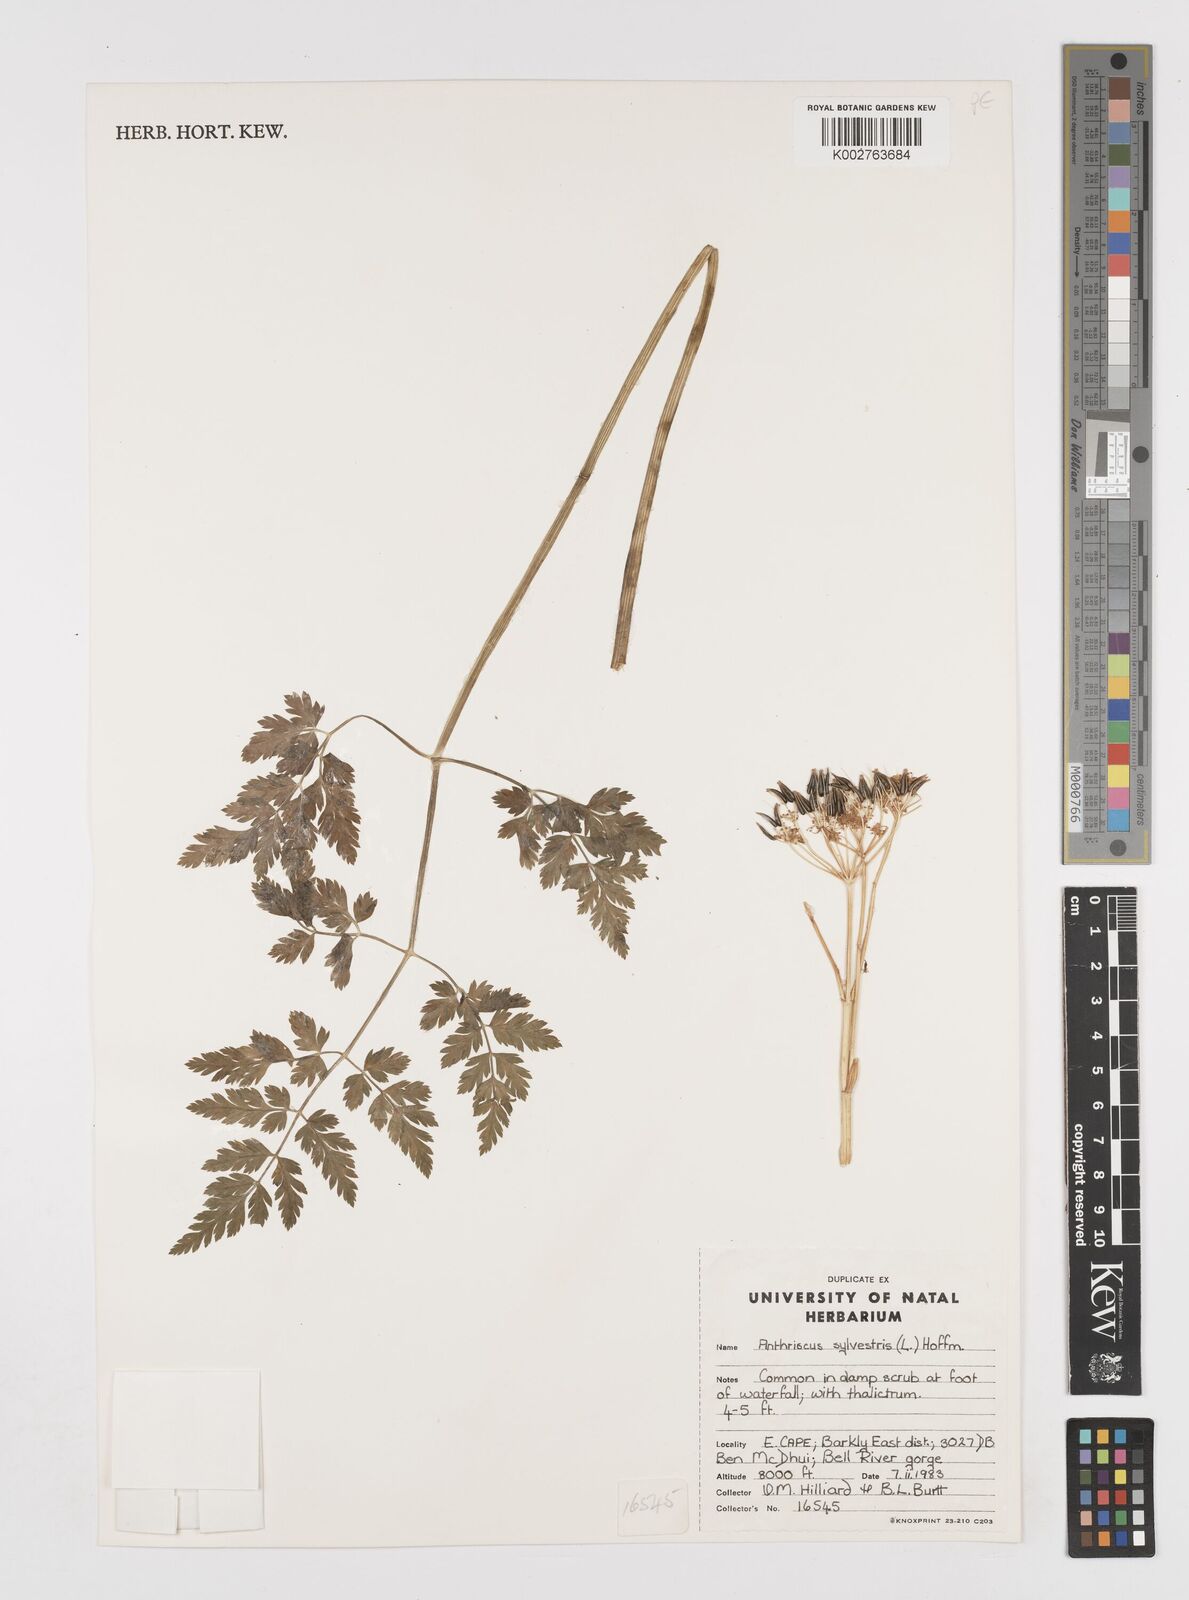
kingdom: Plantae
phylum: Tracheophyta
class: Magnoliopsida
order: Apiales
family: Apiaceae
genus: Anthriscus
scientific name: Anthriscus sylvestris
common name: Cow parsley
